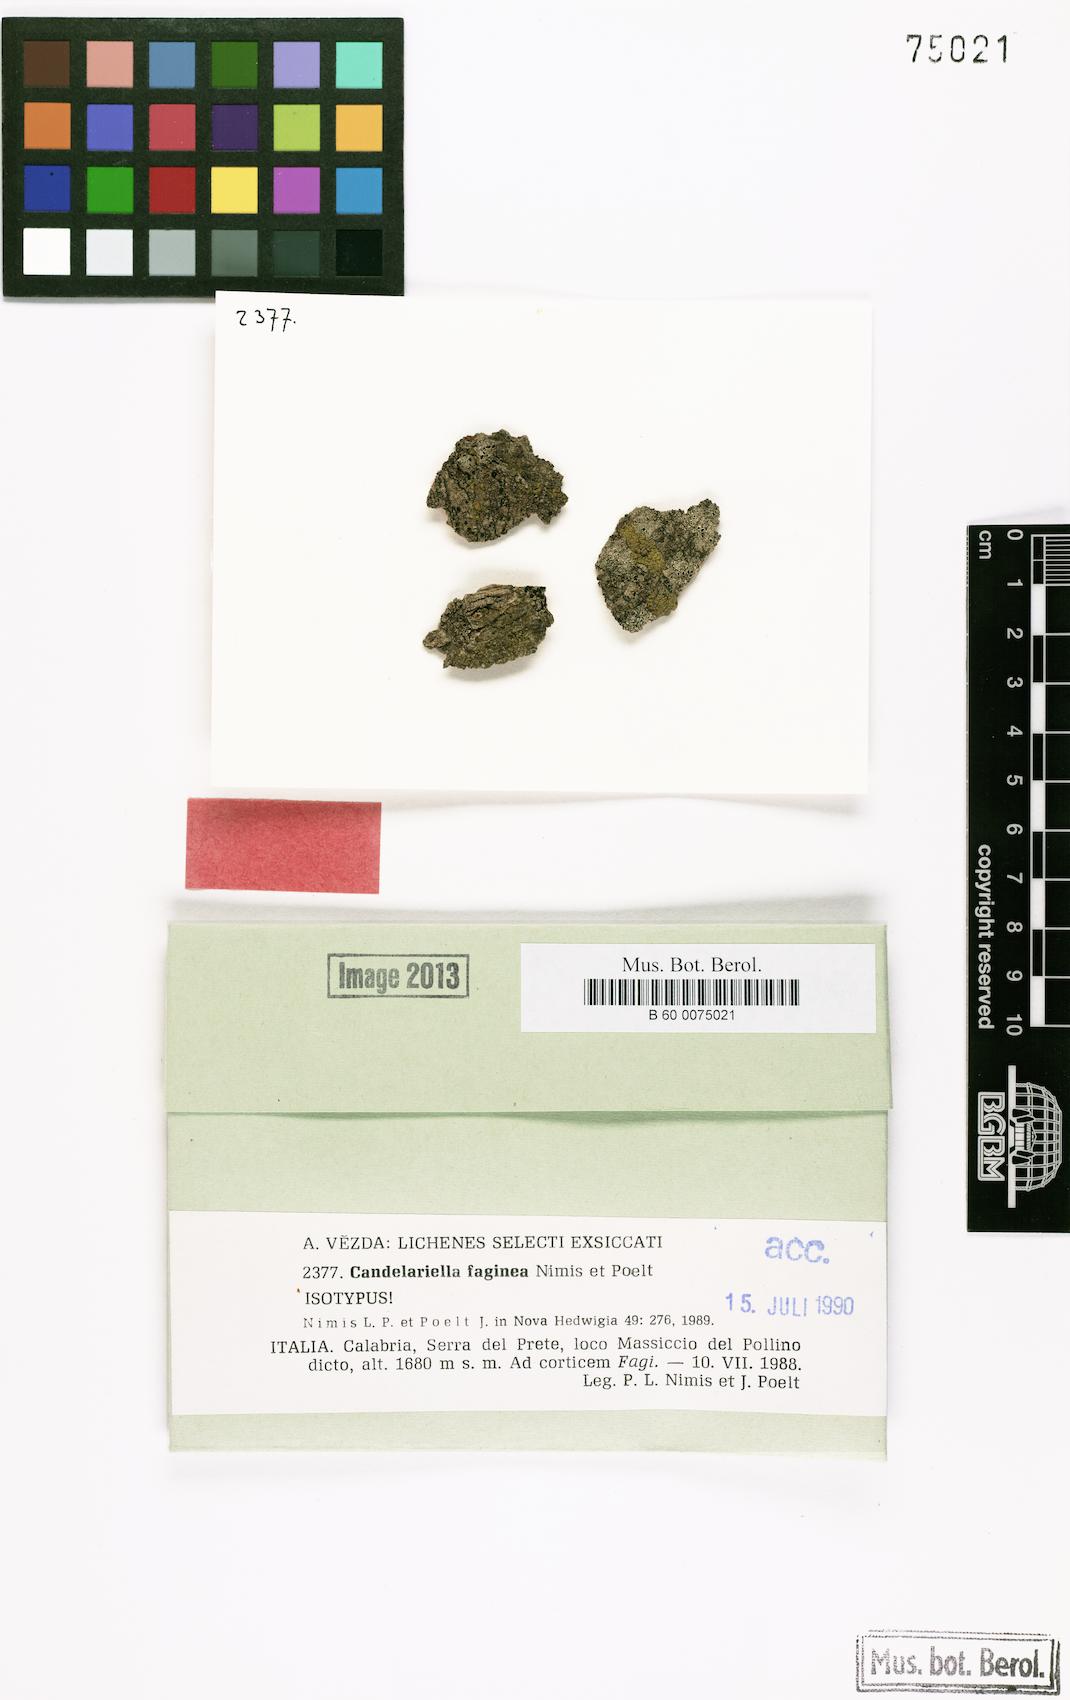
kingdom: Fungi
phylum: Ascomycota
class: Candelariomycetes
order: Candelariales
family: Candelariaceae
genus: Candelariella
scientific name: Candelariella faginea
